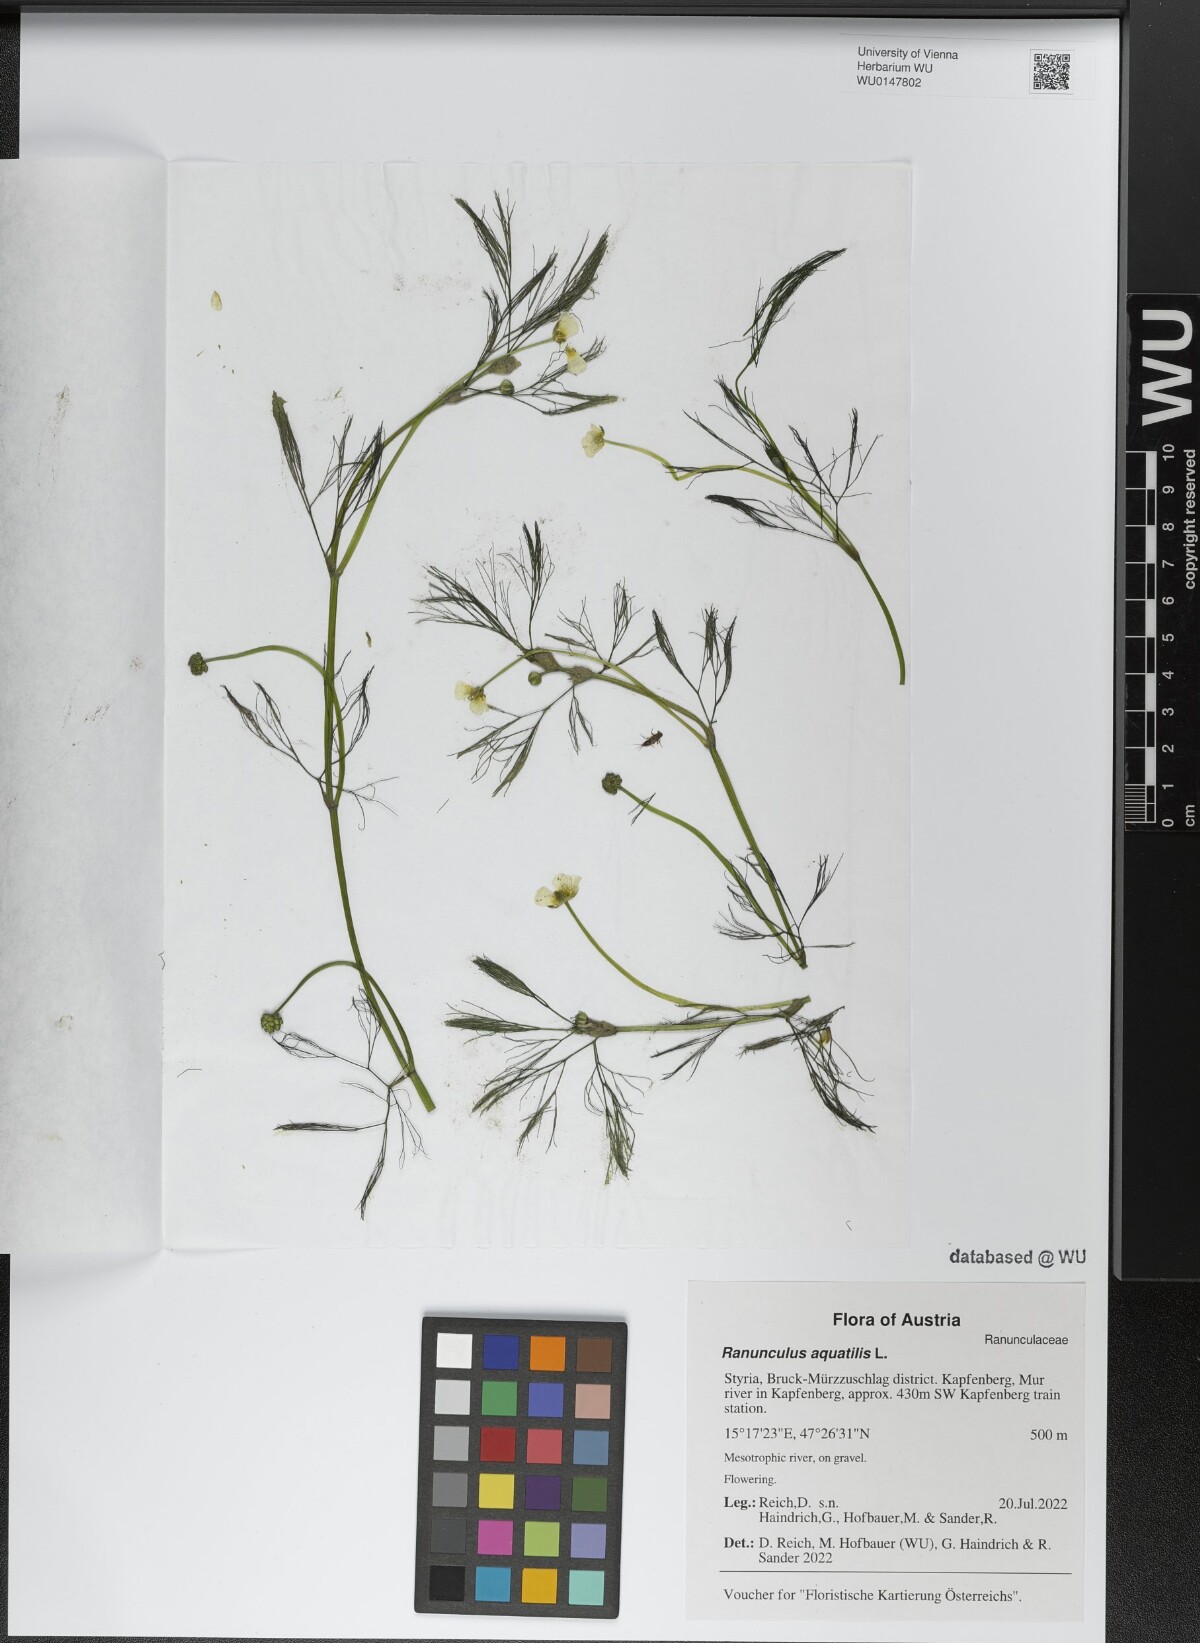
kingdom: Plantae
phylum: Tracheophyta
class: Magnoliopsida
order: Ranunculales
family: Ranunculaceae
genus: Ranunculus
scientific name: Ranunculus aquatilis
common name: Common water-crowfoot
